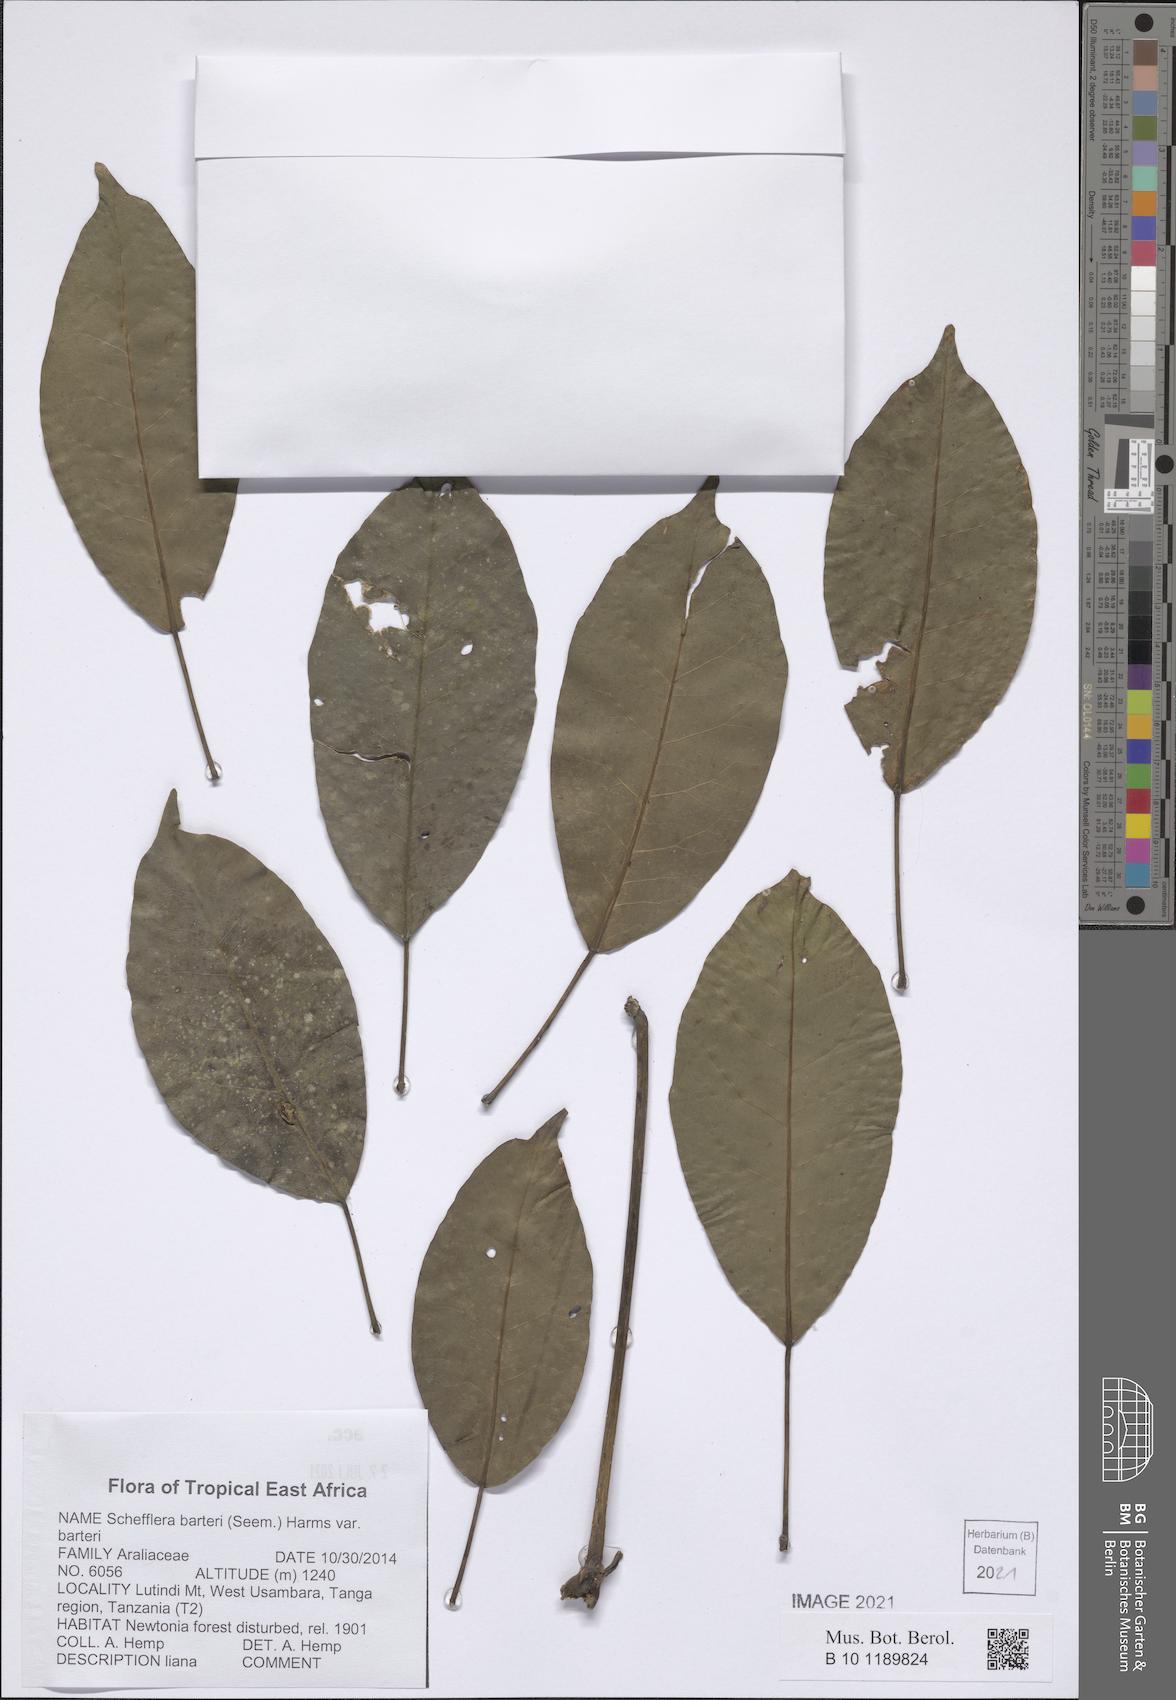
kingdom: Plantae
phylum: Tracheophyta
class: Magnoliopsida
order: Apiales
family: Araliaceae
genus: Schefflera
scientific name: Schefflera barteri
